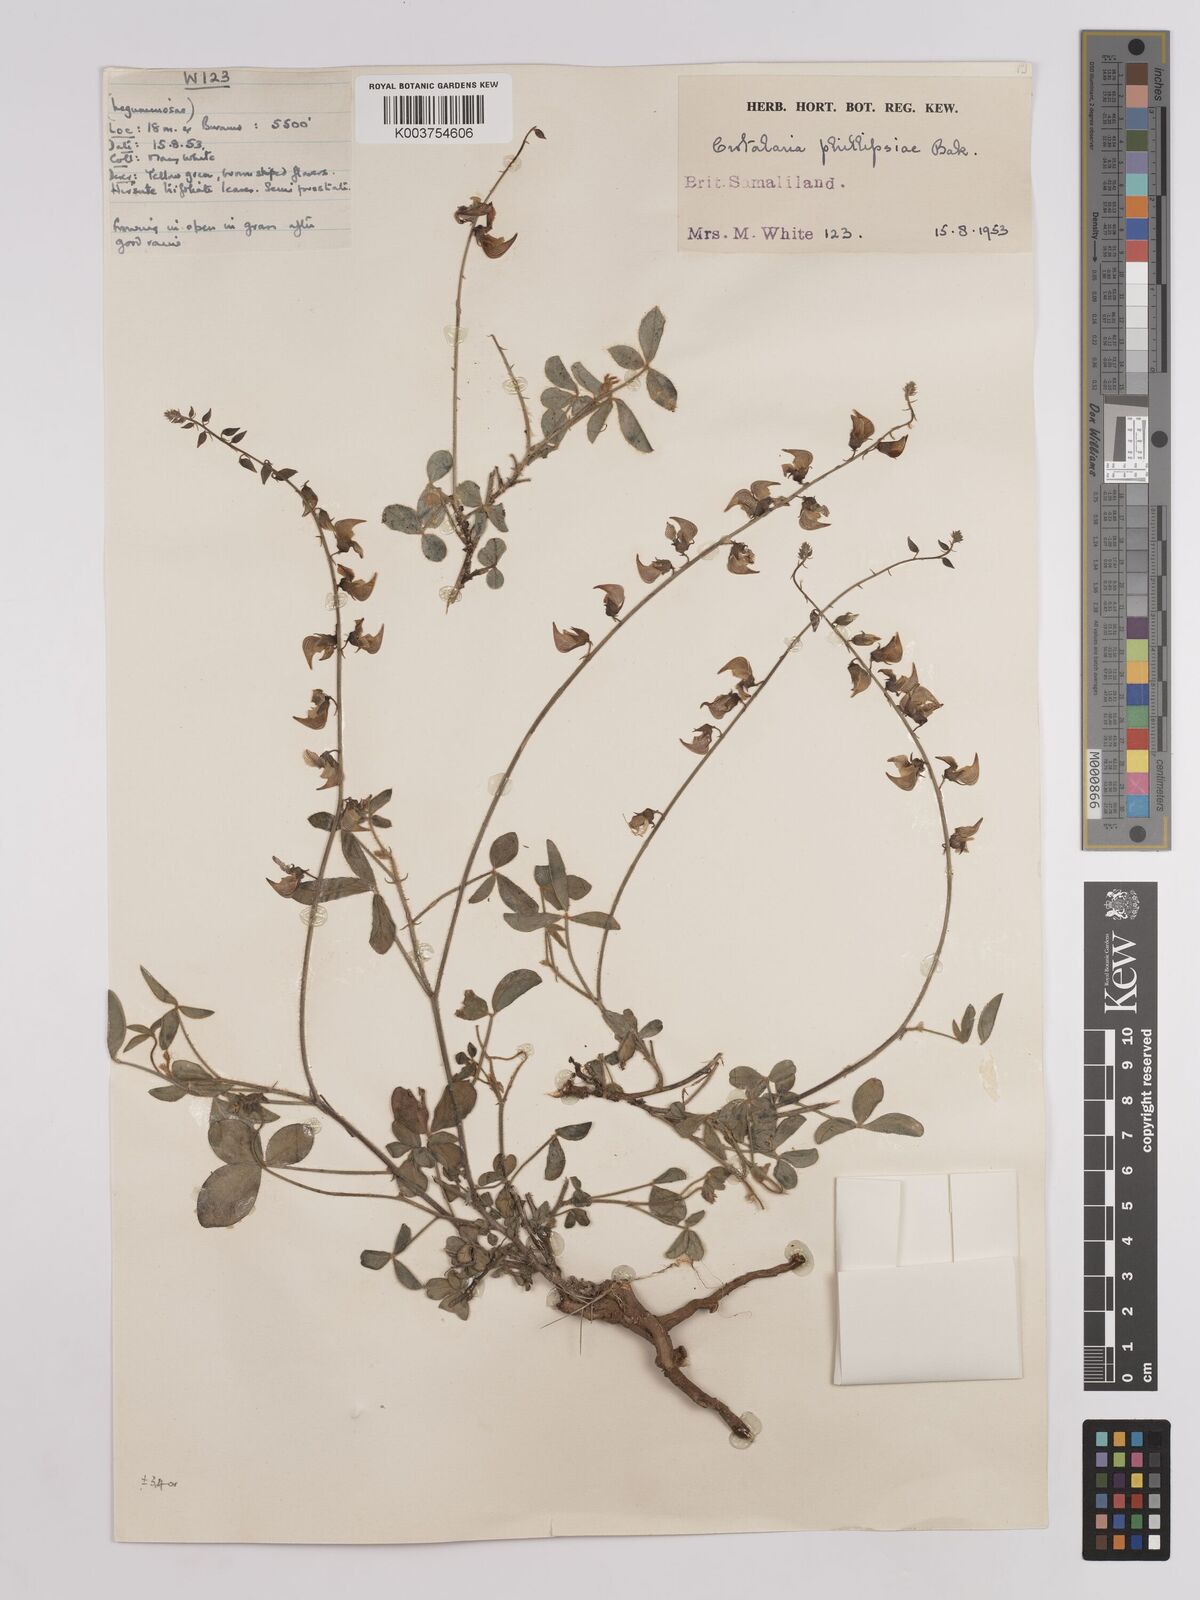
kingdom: Plantae
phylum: Tracheophyta
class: Magnoliopsida
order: Fabales
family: Fabaceae
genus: Crotalaria
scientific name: Crotalaria phillipsiae
